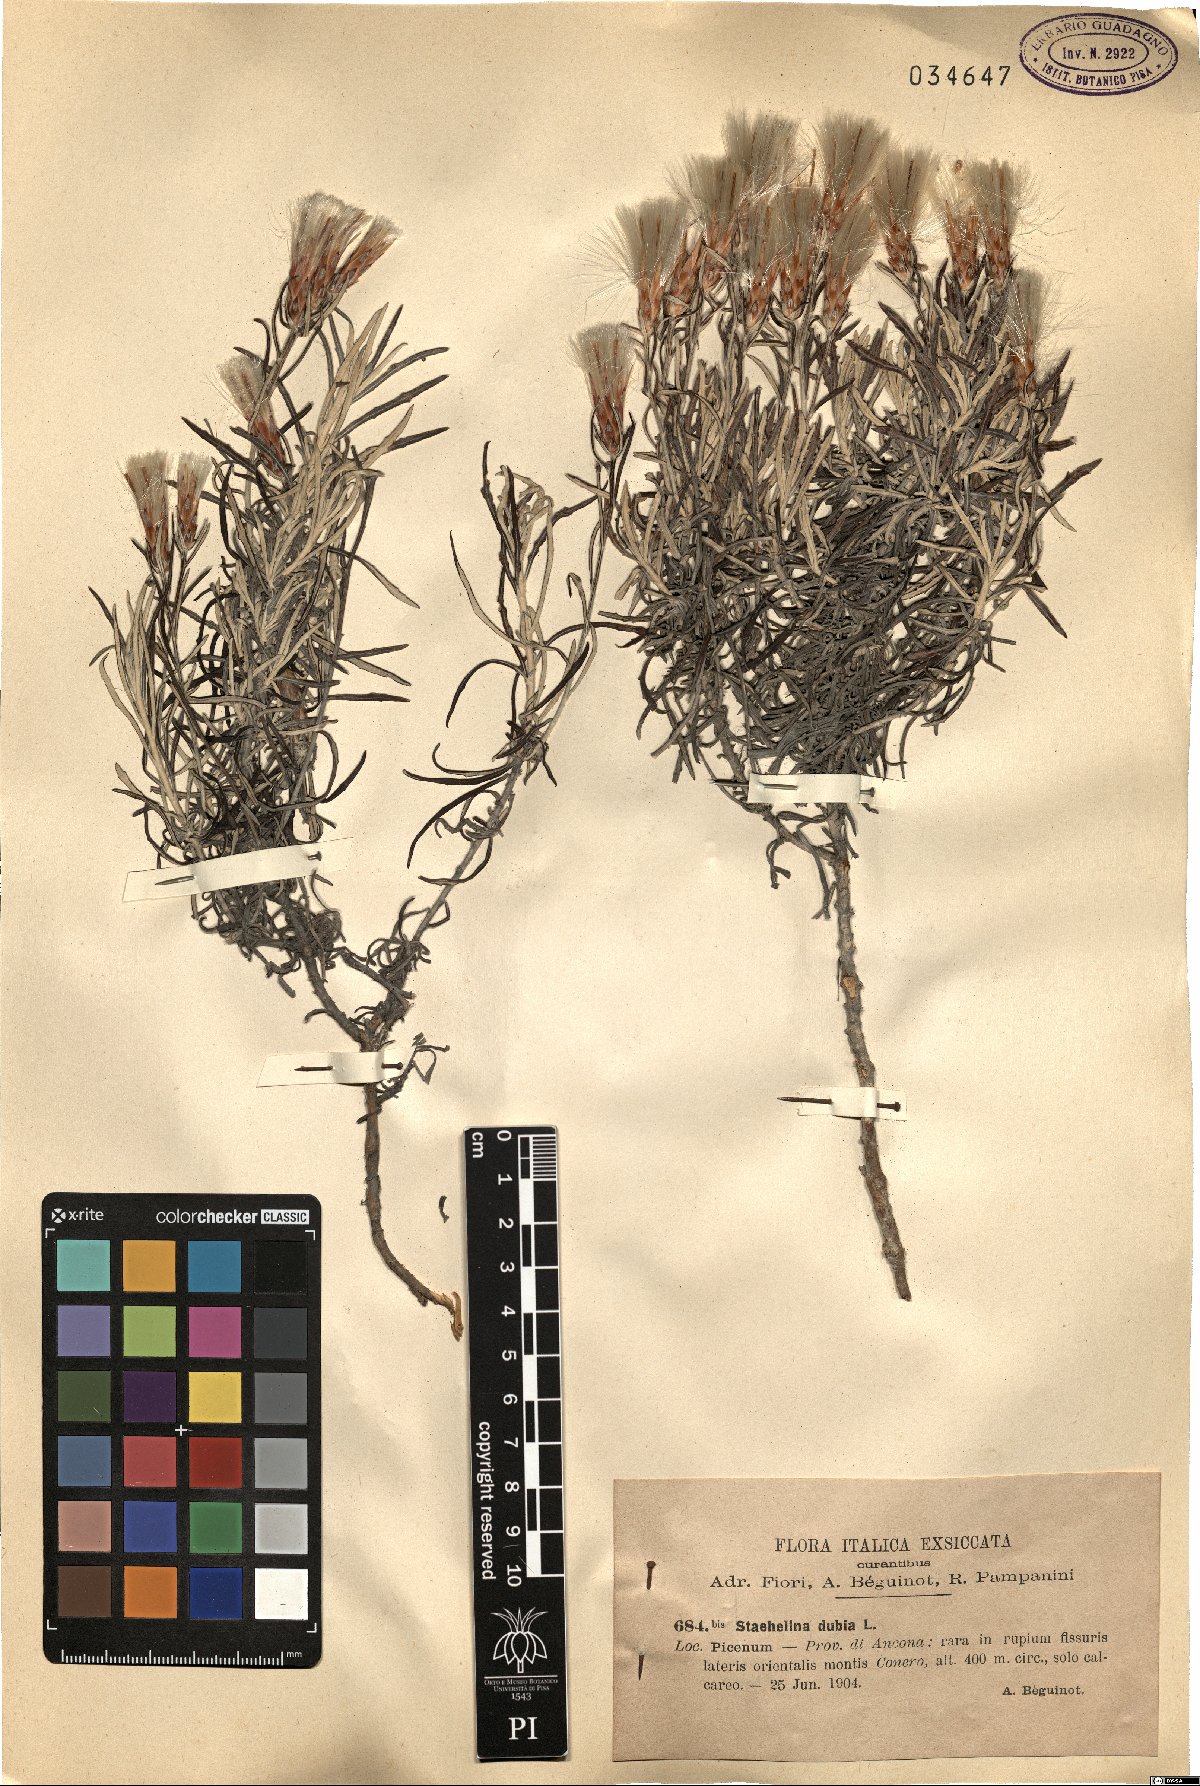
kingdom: Plantae
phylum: Tracheophyta
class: Magnoliopsida
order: Asterales
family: Asteraceae
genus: Staehelina
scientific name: Staehelina dubia
